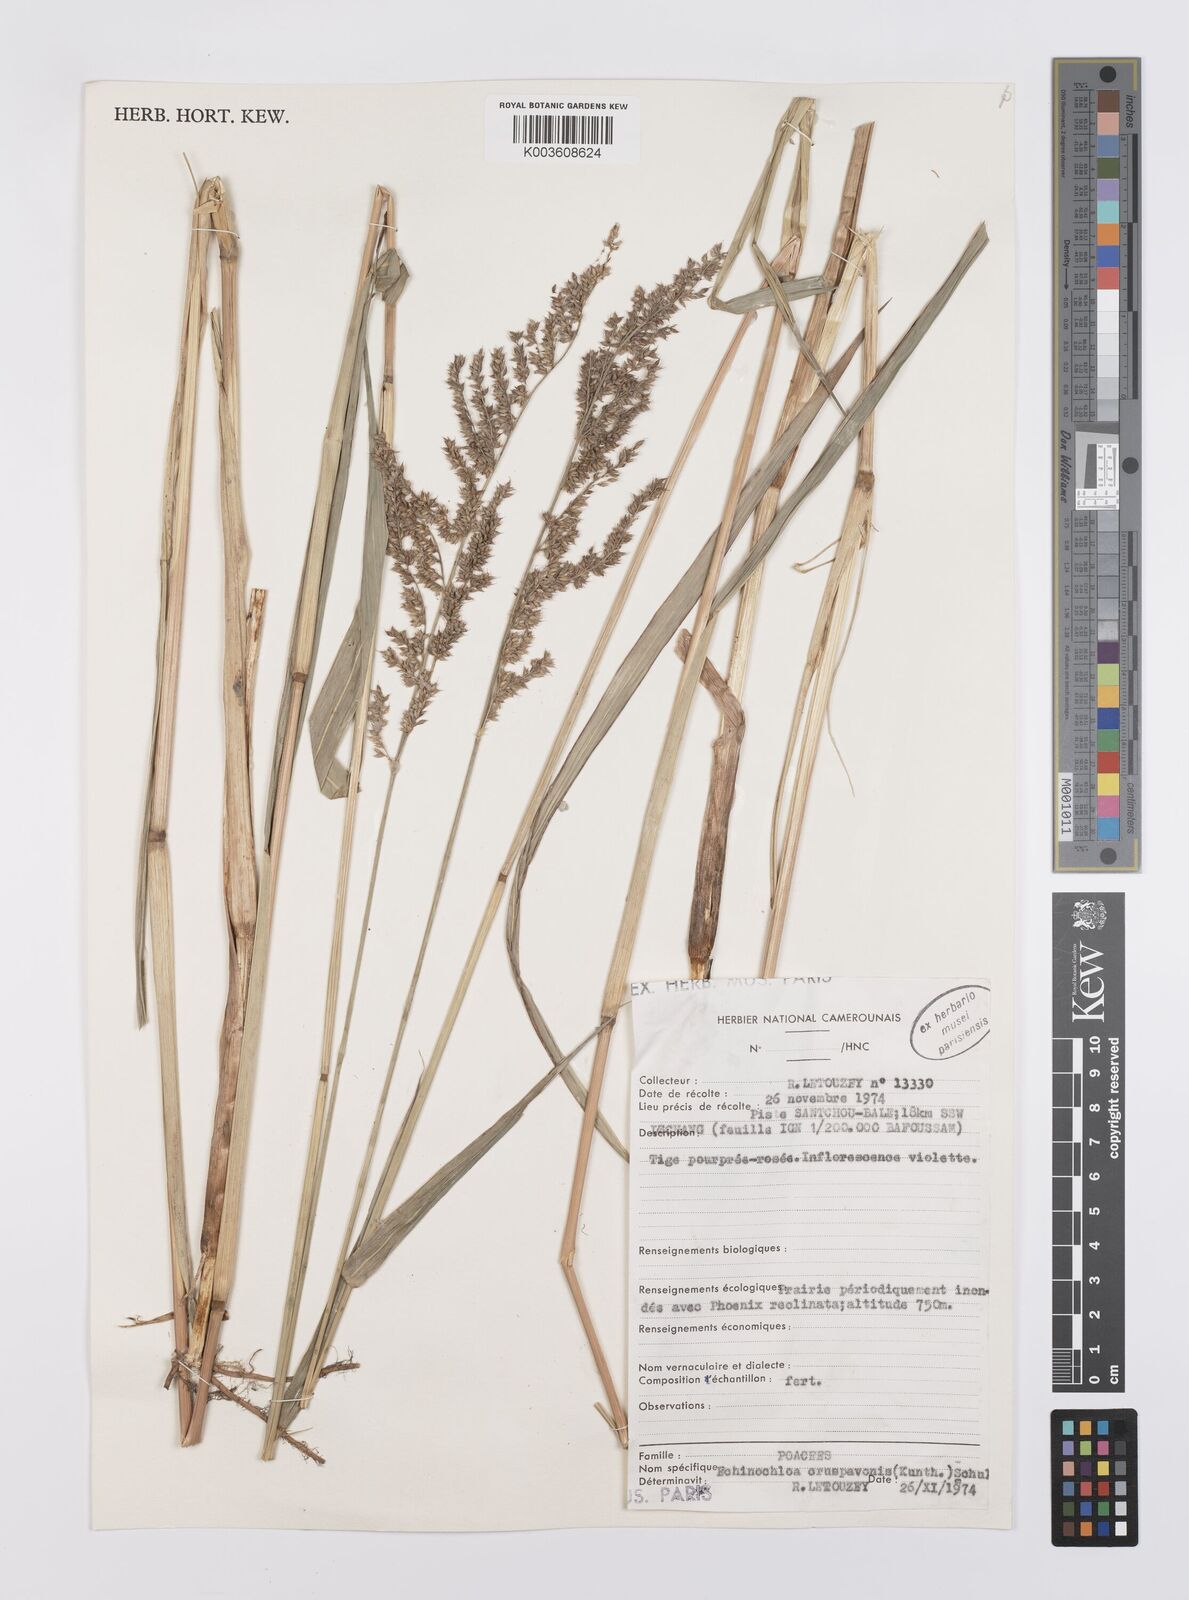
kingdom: Plantae
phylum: Tracheophyta
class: Liliopsida
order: Poales
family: Poaceae
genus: Echinochloa
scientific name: Echinochloa crus-pavonis
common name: Gulf cockspur grass
